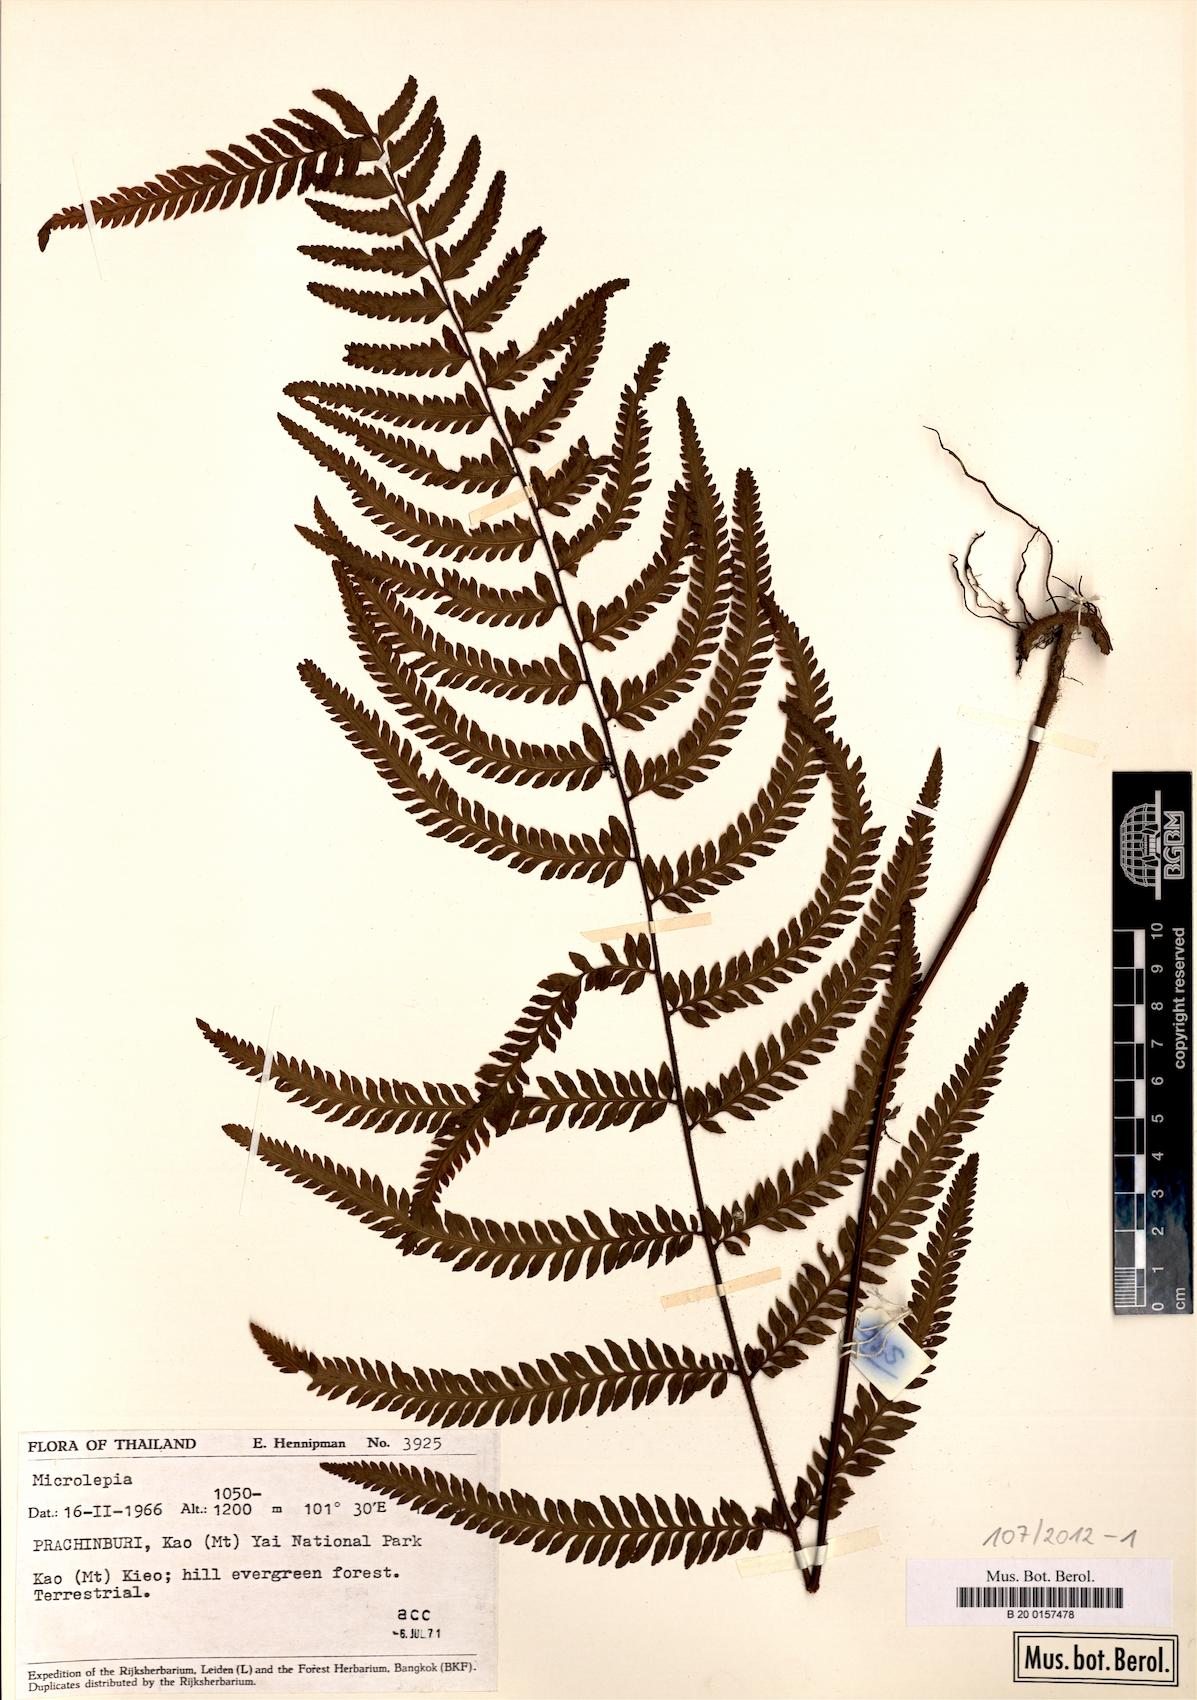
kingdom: Plantae
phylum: Tracheophyta
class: Polypodiopsida
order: Polypodiales
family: Dennstaedtiaceae
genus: Microlepia
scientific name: Microlepia intramarginalis
